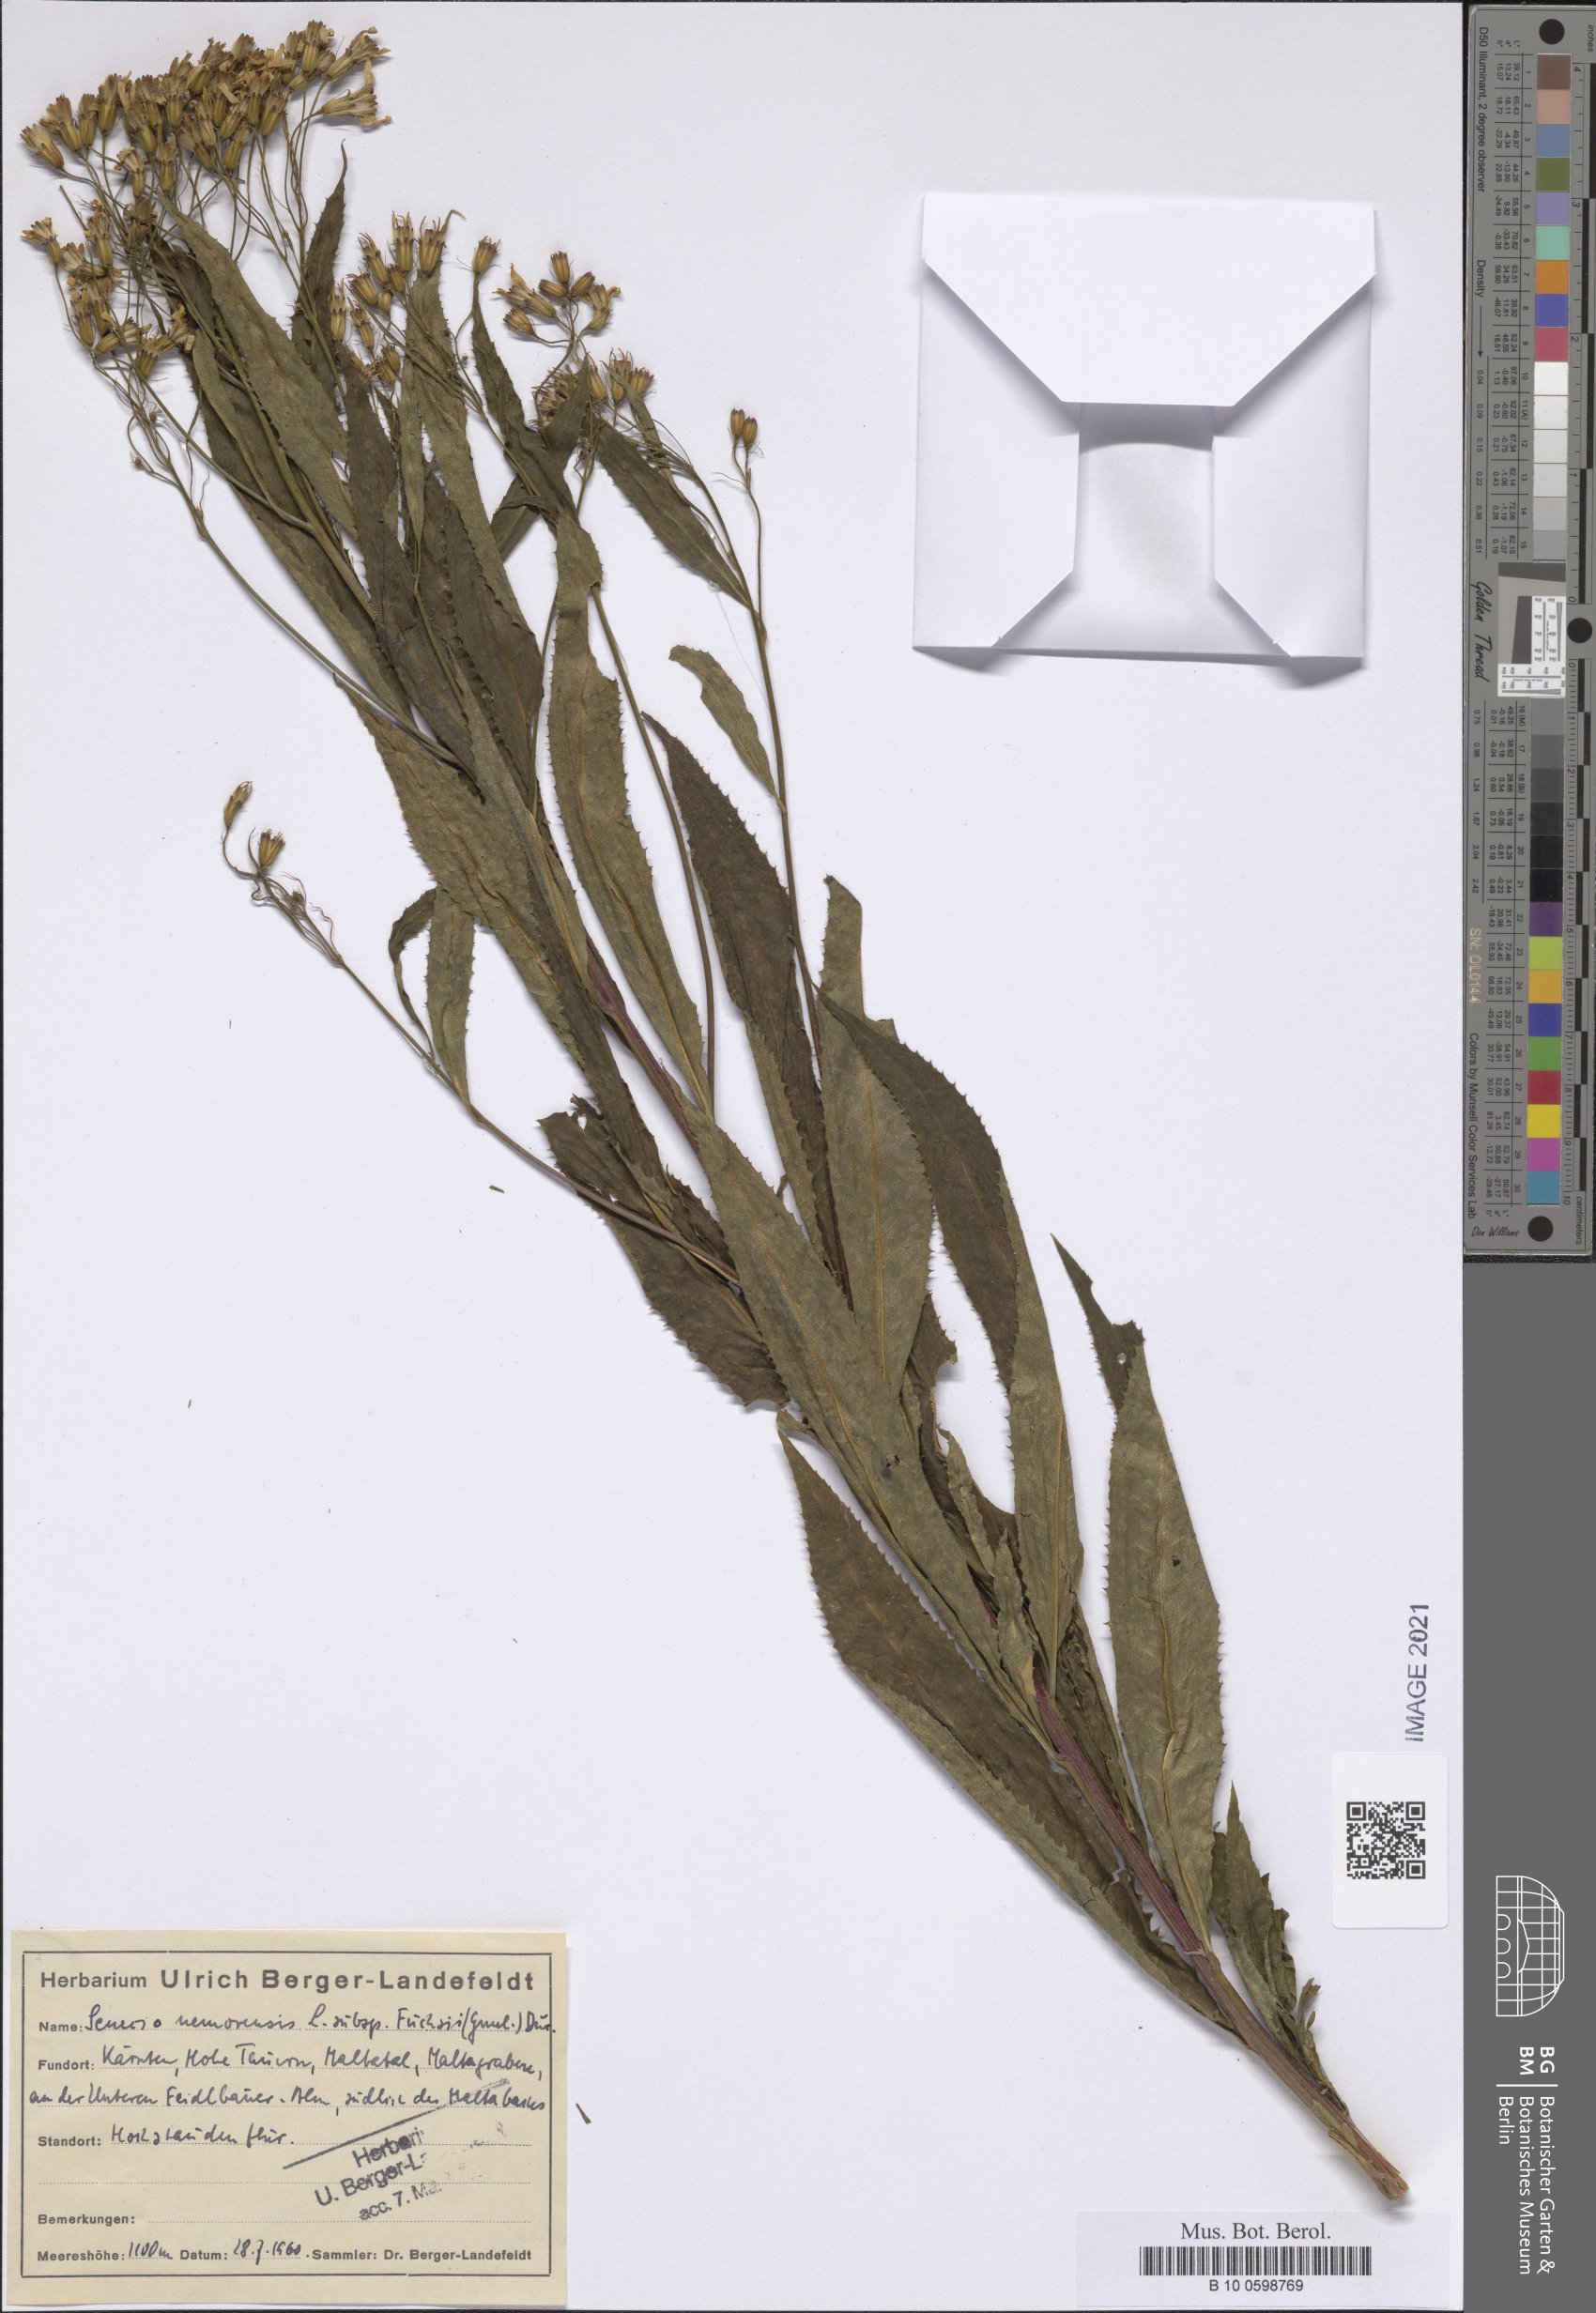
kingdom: Plantae
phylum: Tracheophyta
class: Magnoliopsida
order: Asterales
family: Asteraceae
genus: Senecio
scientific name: Senecio ovatus
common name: Wood ragwort
